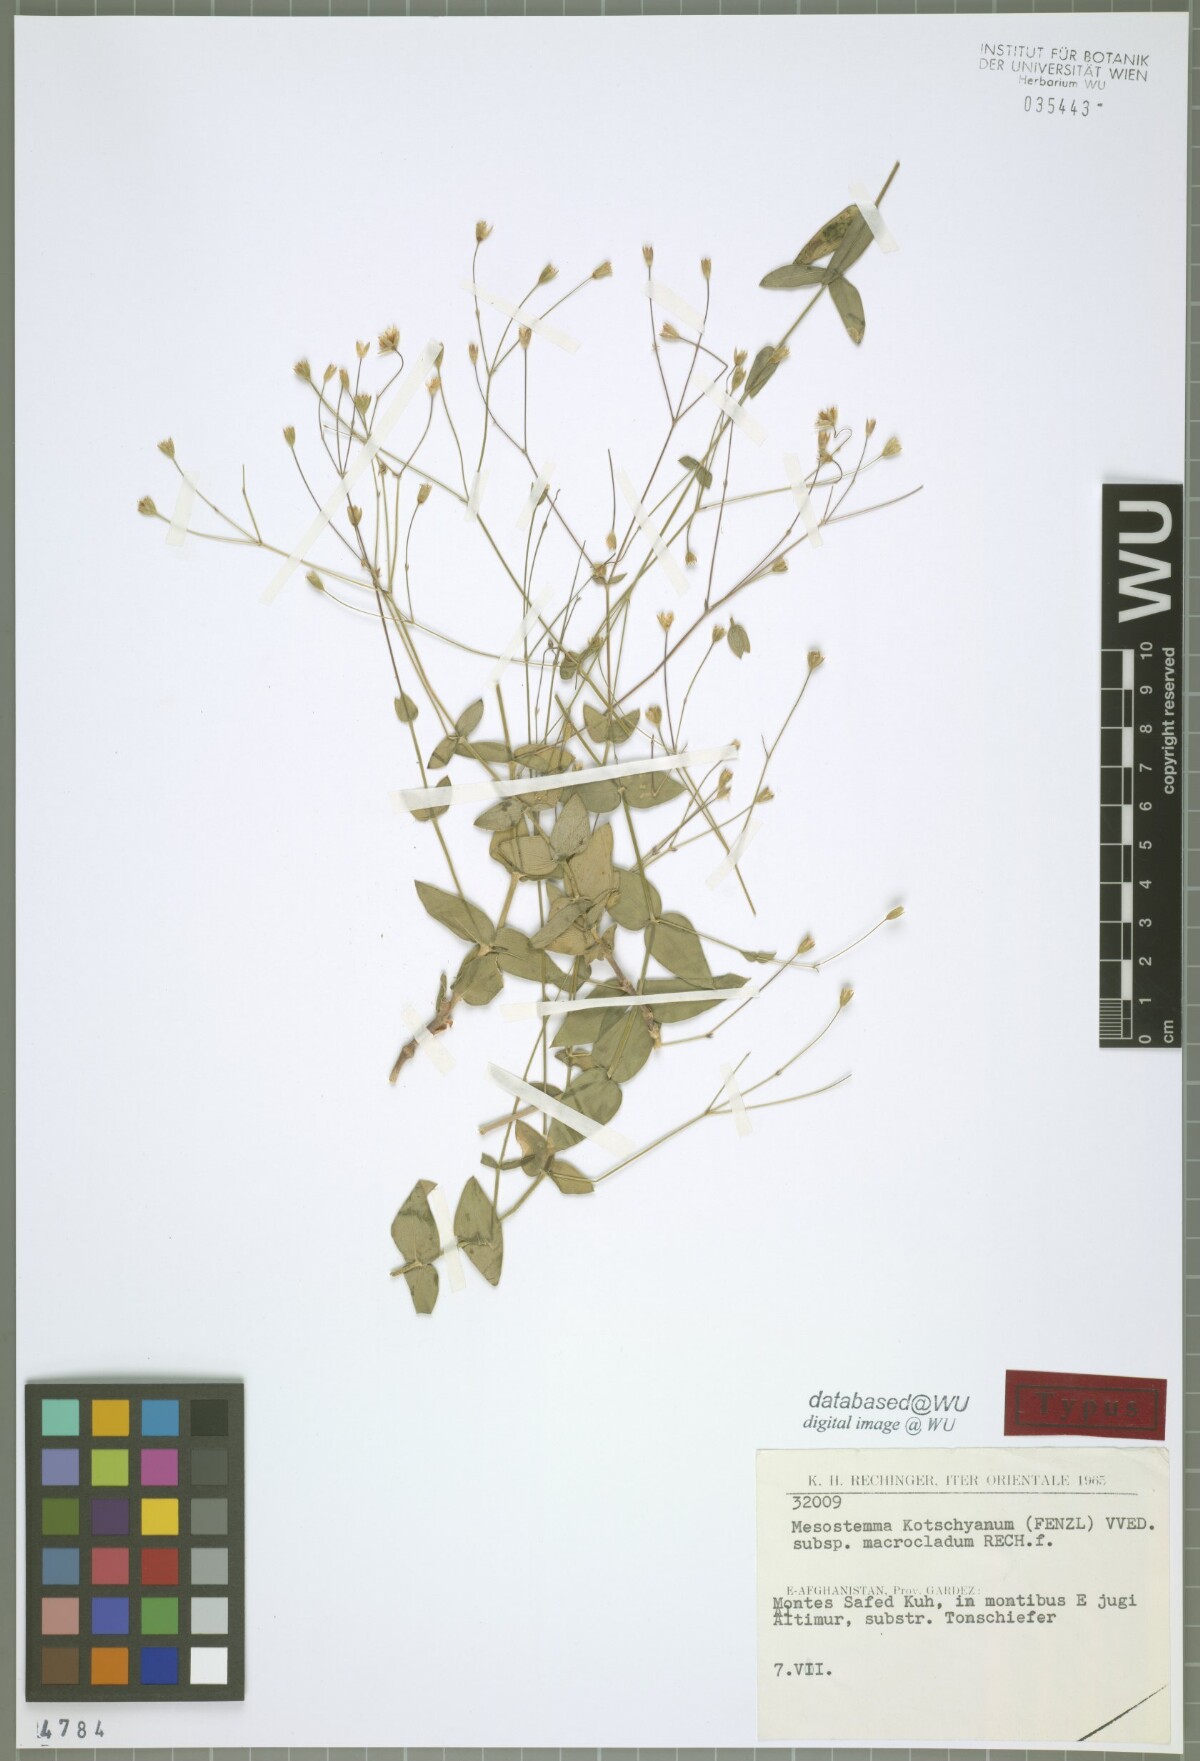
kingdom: Plantae
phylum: Tracheophyta
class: Magnoliopsida
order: Caryophyllales
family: Caryophyllaceae
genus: Mesostemma
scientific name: Mesostemma kotschyanum
